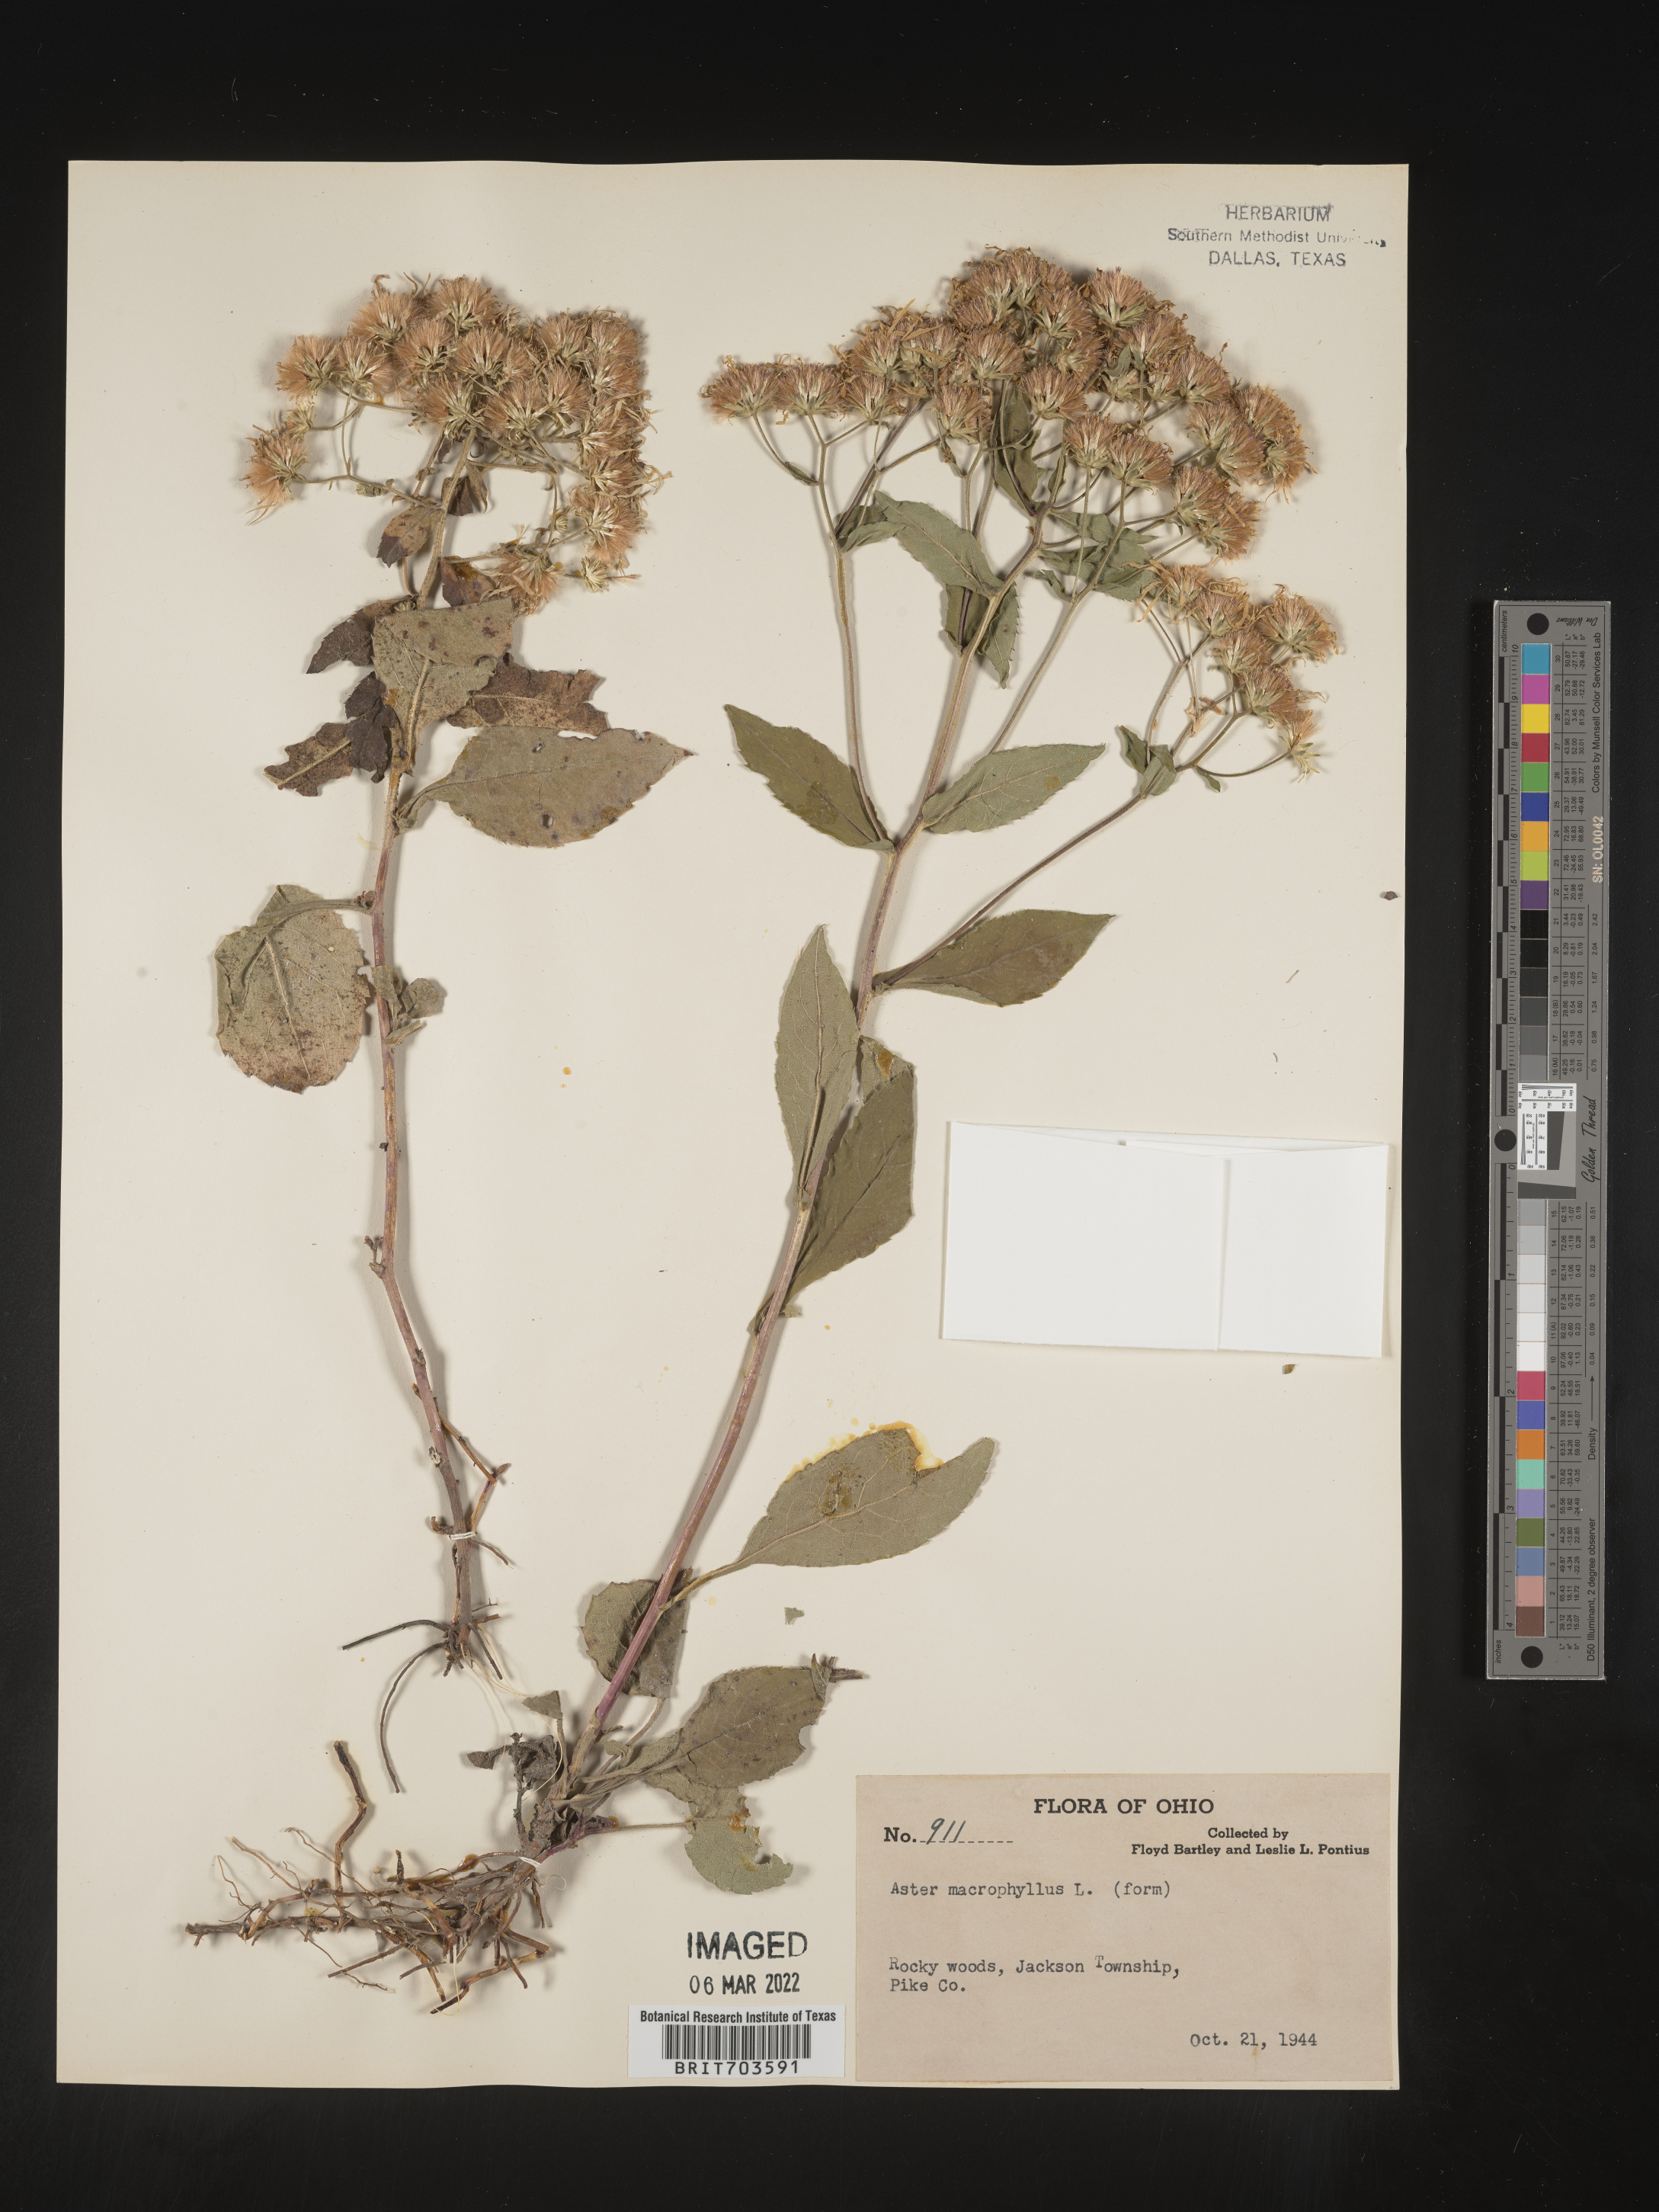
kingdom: Plantae
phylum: Tracheophyta
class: Magnoliopsida
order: Asterales
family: Asteraceae
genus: Eurybia
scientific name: Eurybia macrophylla
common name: Big-leaved aster
